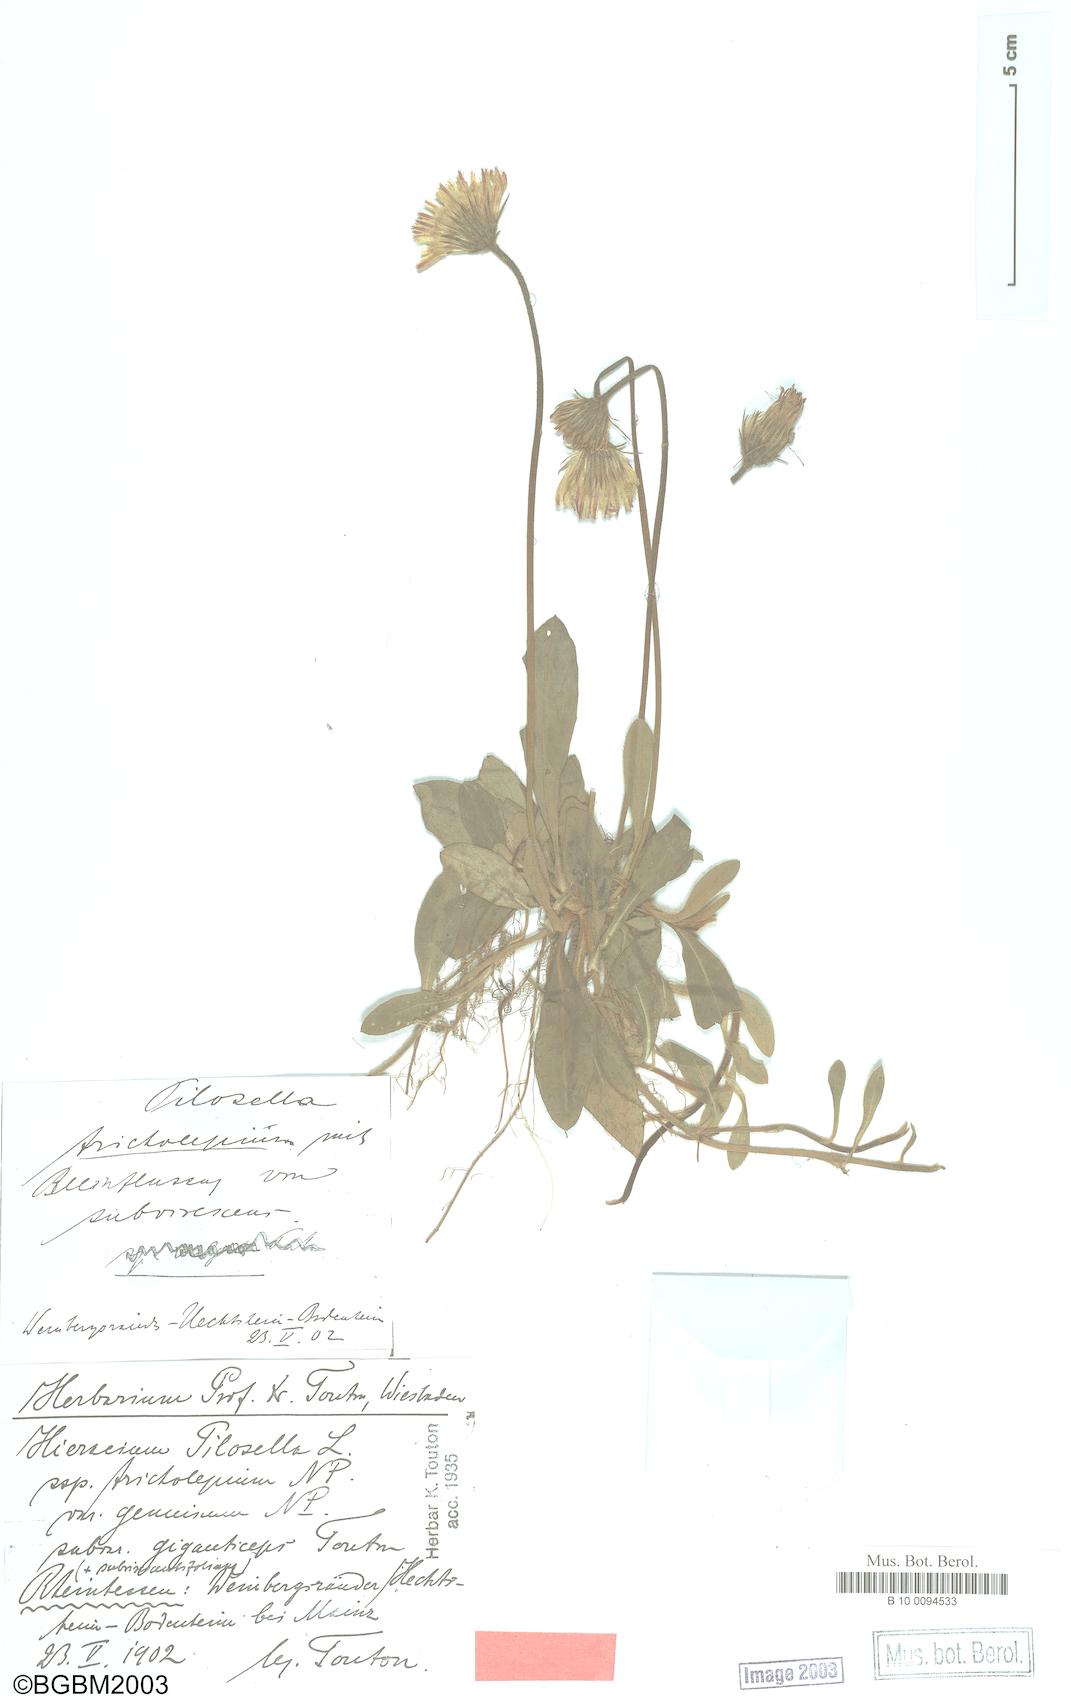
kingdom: Plantae
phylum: Tracheophyta
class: Magnoliopsida
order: Asterales
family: Asteraceae
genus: Pilosella
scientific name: Pilosella officinarum
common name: Mouse-ear hawkweed
